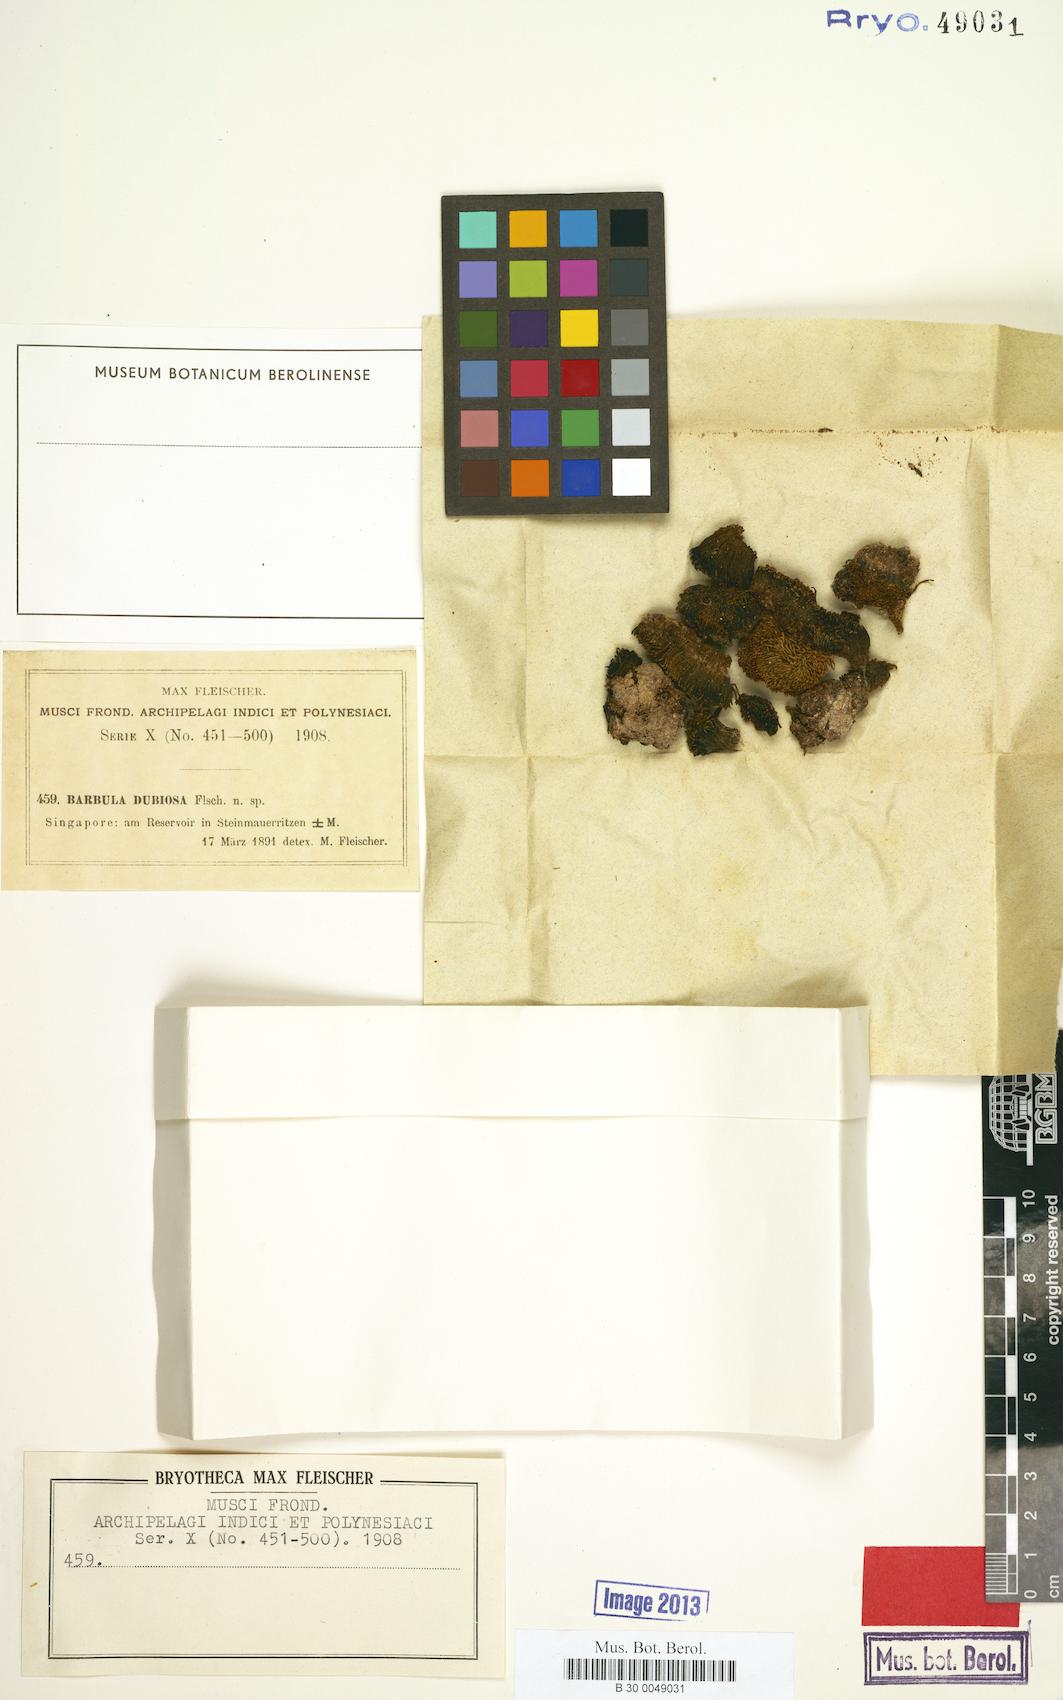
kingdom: Plantae
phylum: Bryophyta
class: Bryopsida
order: Pottiales
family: Pottiaceae
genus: Barbula
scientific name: Barbula unguiculata
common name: Prickly beard moss
